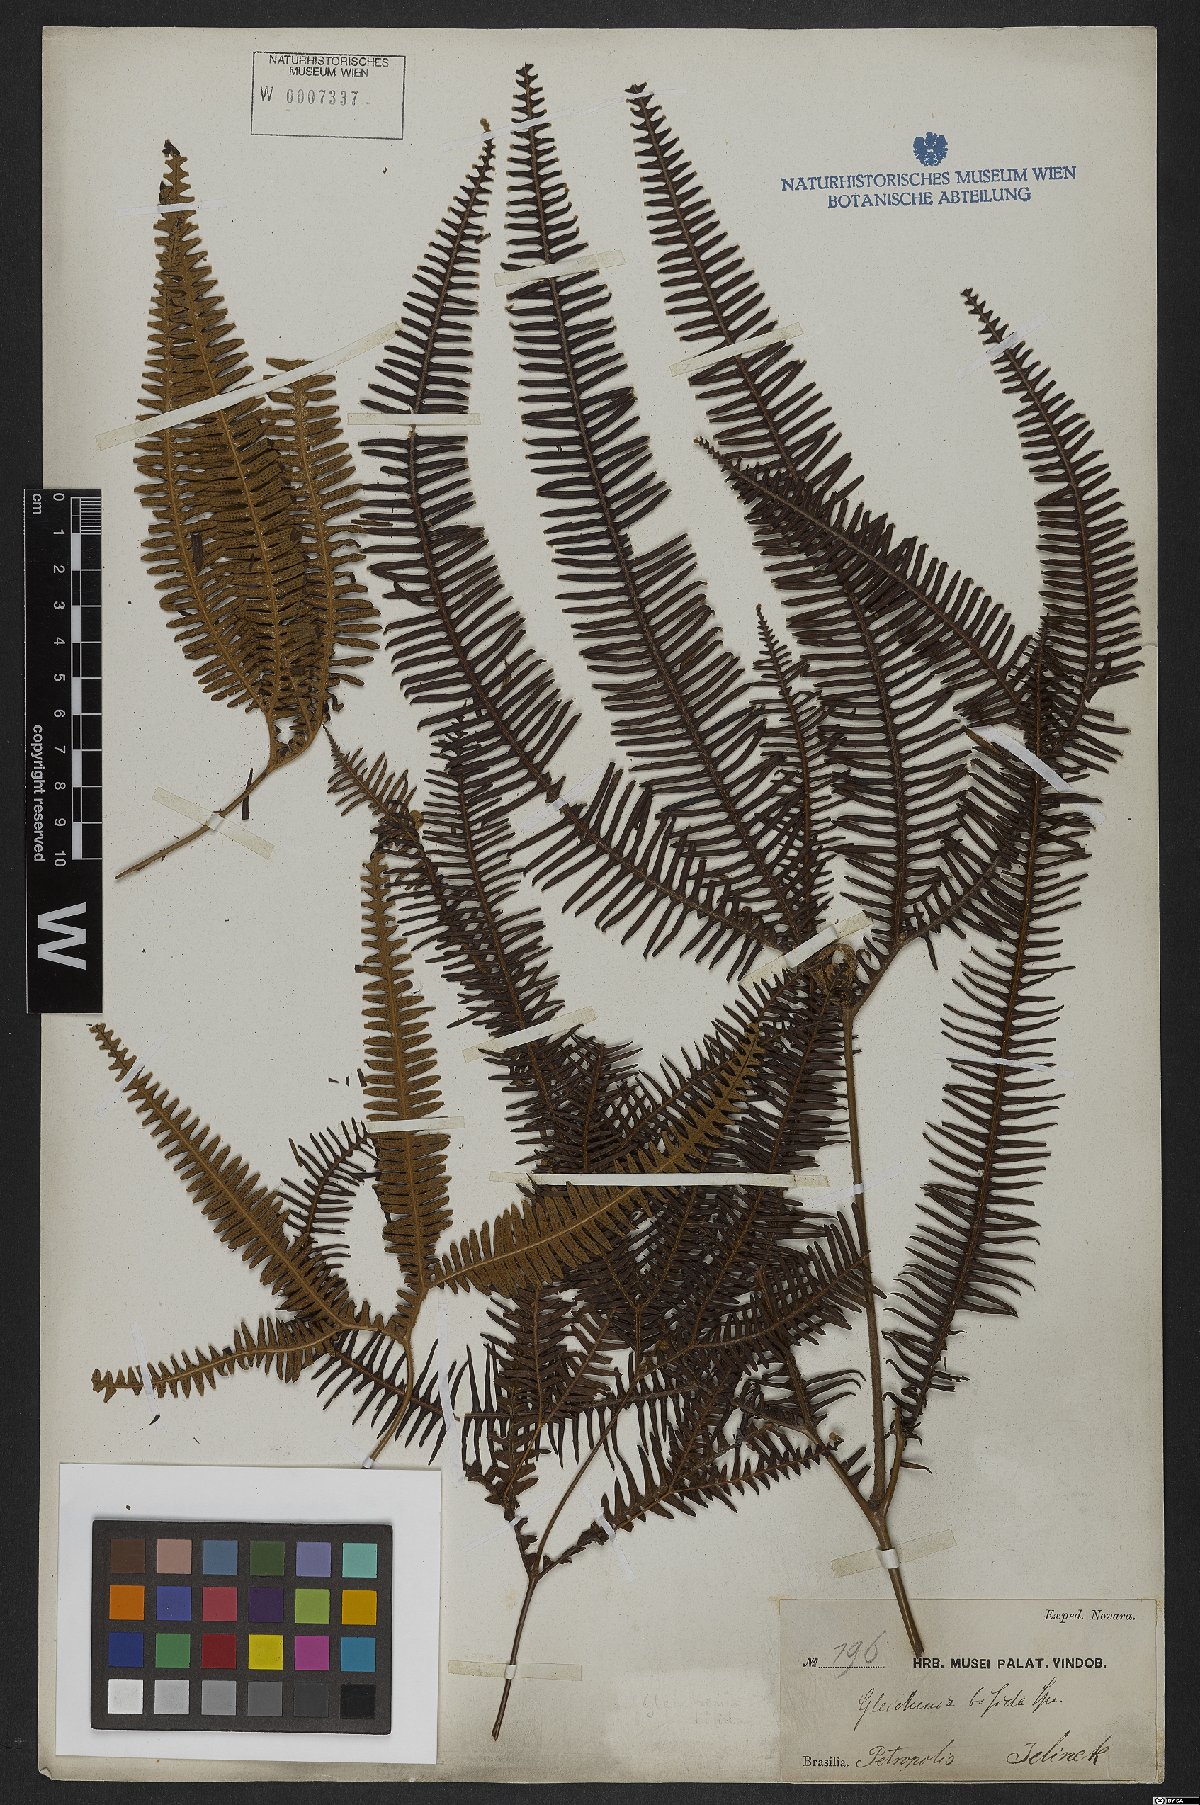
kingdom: Plantae
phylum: Tracheophyta
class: Polypodiopsida
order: Gleicheniales
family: Gleicheniaceae
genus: Sticherus
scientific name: Sticherus bifidus
